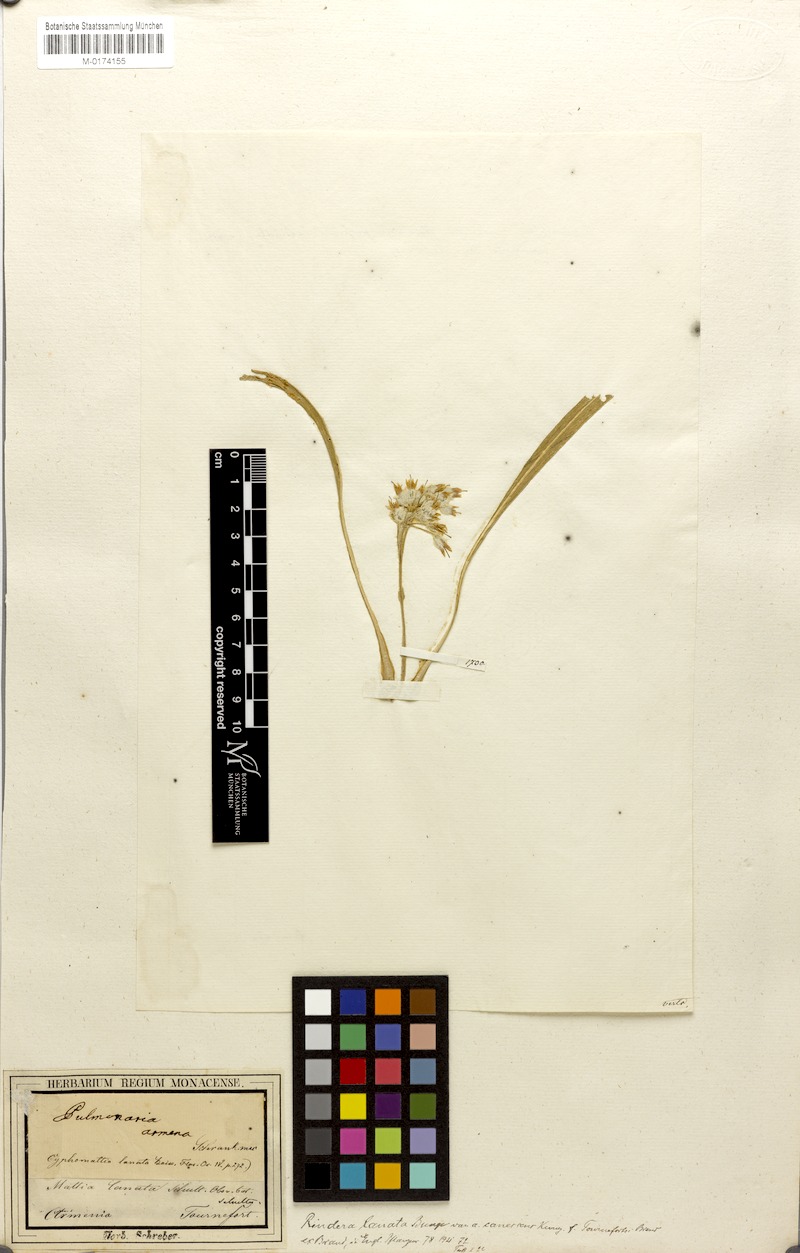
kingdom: Plantae
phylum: Tracheophyta
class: Magnoliopsida
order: Boraginales
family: Boraginaceae
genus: Rindera
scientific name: Rindera lanata
